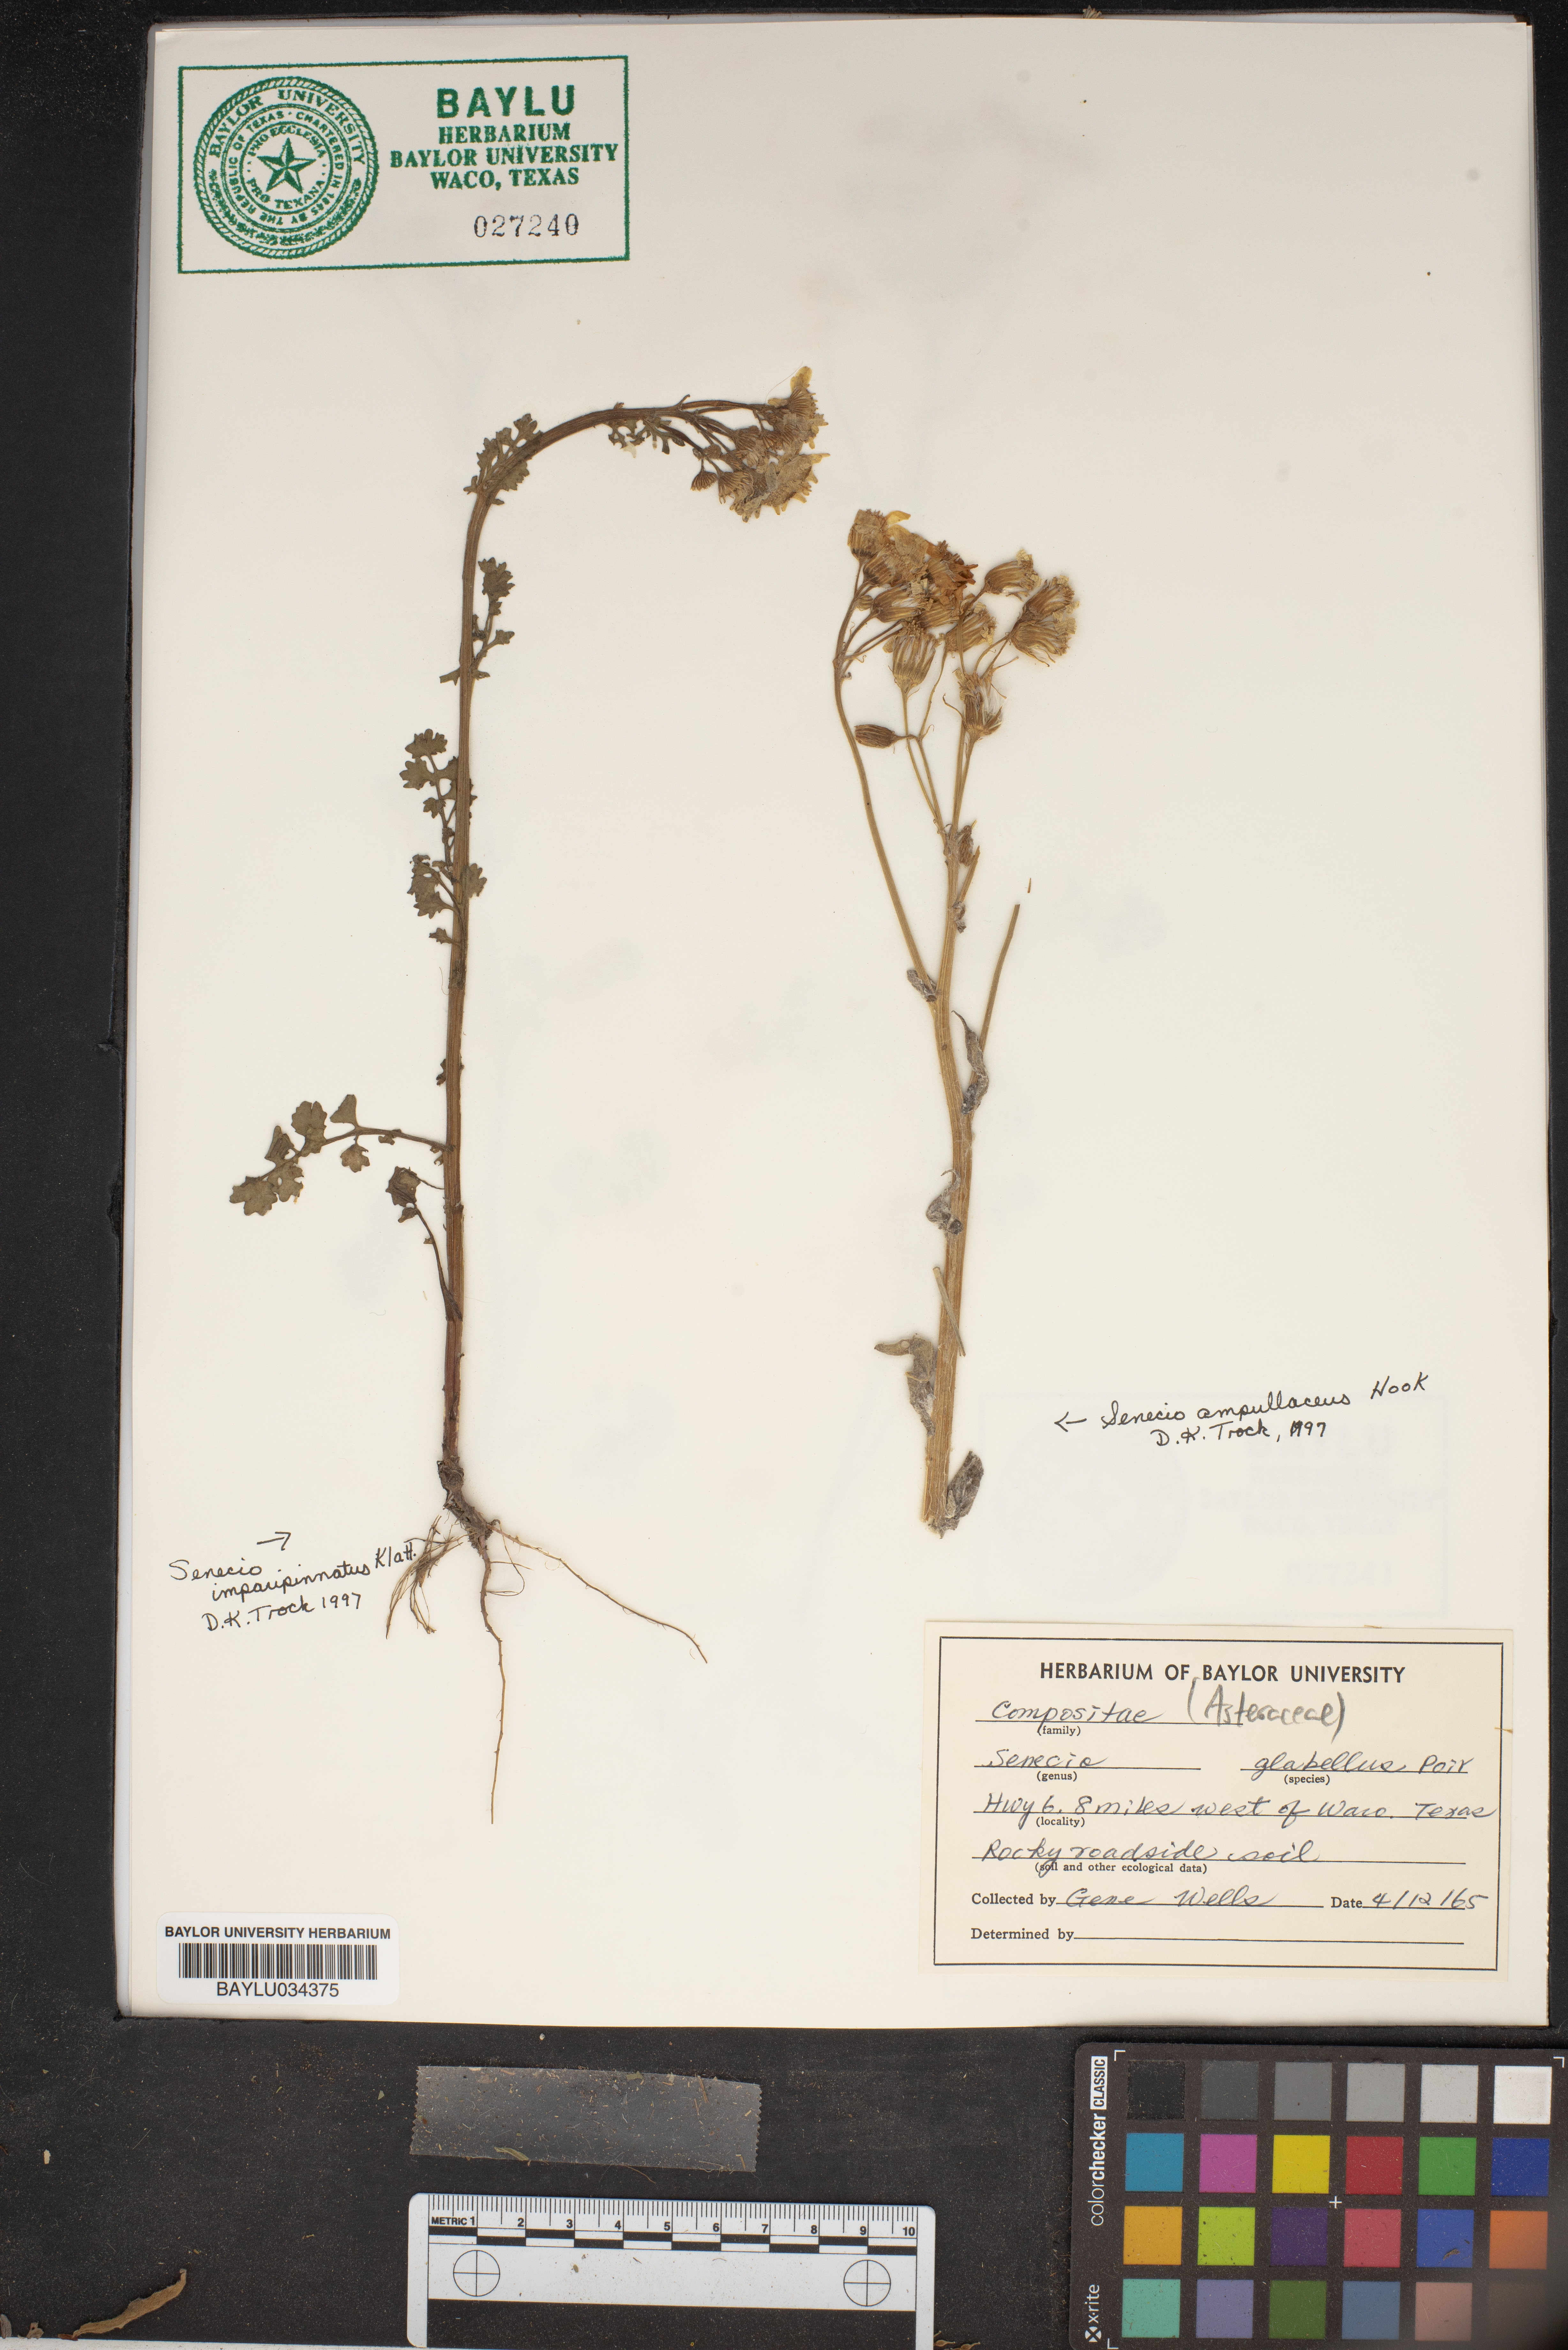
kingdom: Plantae
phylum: Tracheophyta
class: Magnoliopsida
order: Asterales
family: Asteraceae
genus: Tephroseris
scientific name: Tephroseris praticola
